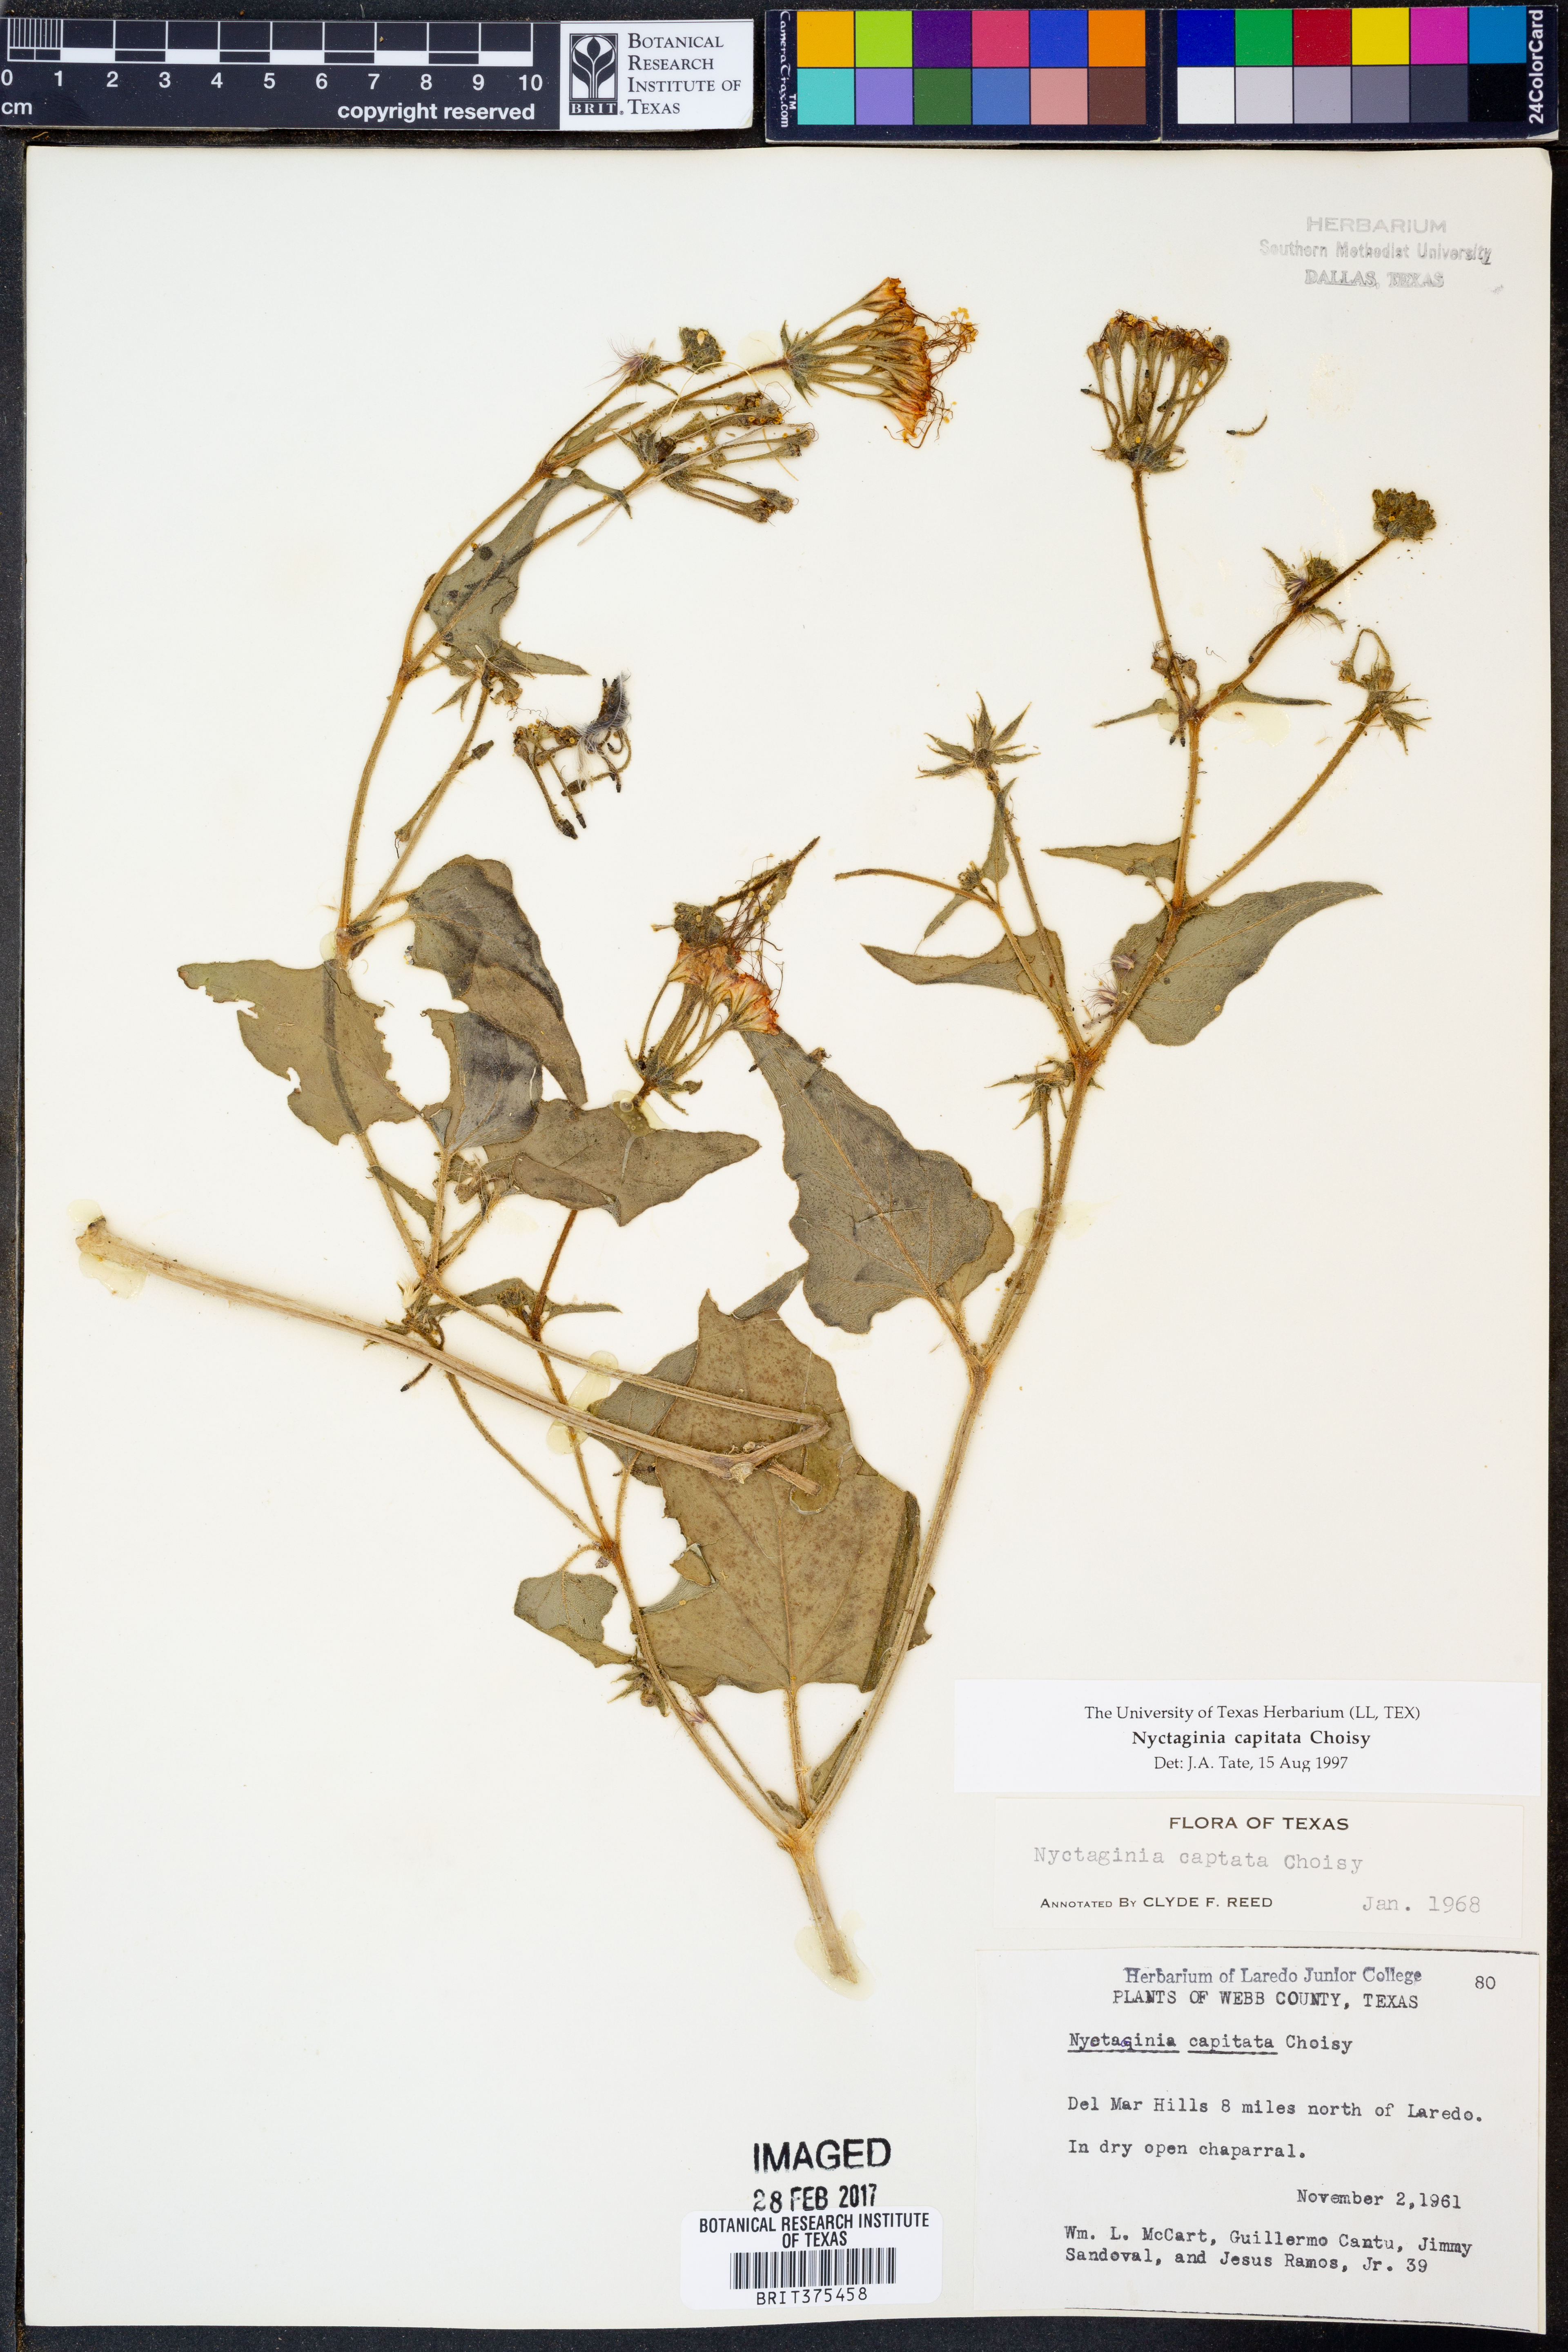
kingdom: Plantae
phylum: Tracheophyta
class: Magnoliopsida
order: Caryophyllales
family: Nyctaginaceae
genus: Nyctaginia
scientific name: Nyctaginia capitata
